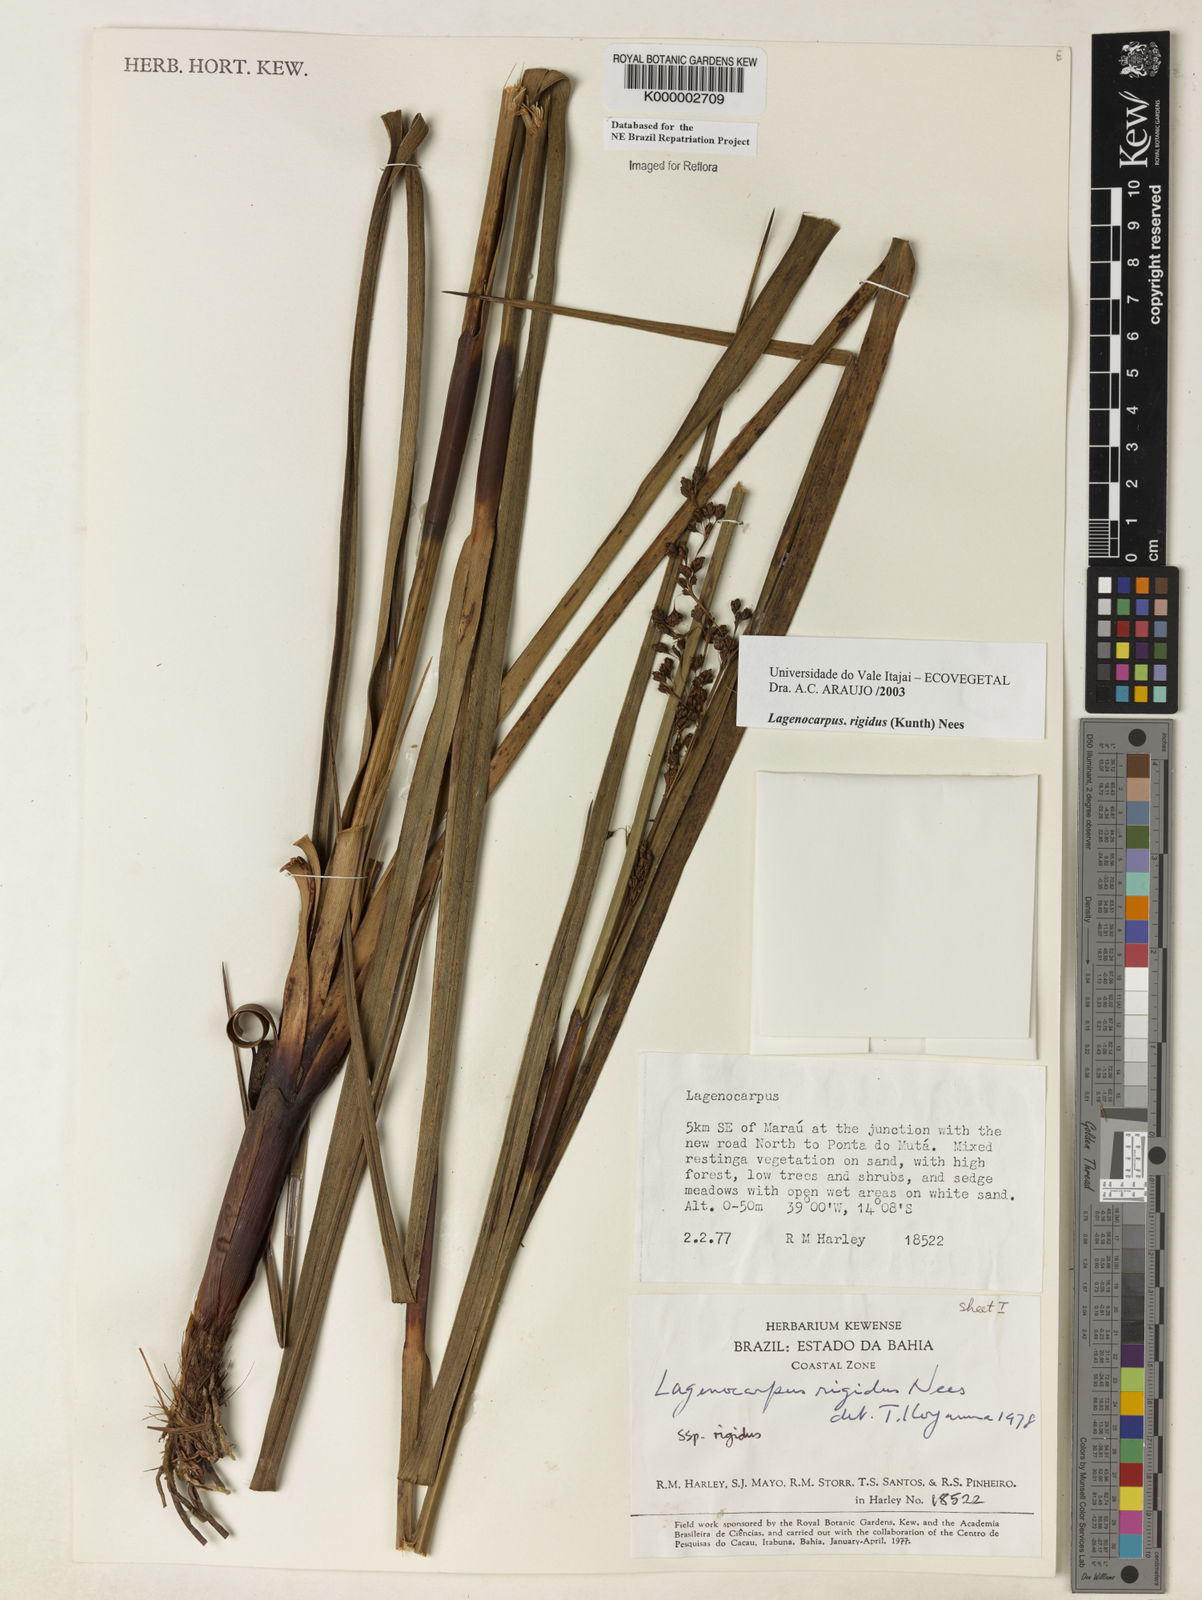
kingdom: Plantae
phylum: Tracheophyta
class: Liliopsida
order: Poales
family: Cyperaceae
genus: Lagenocarpus
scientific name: Lagenocarpus rigidus
